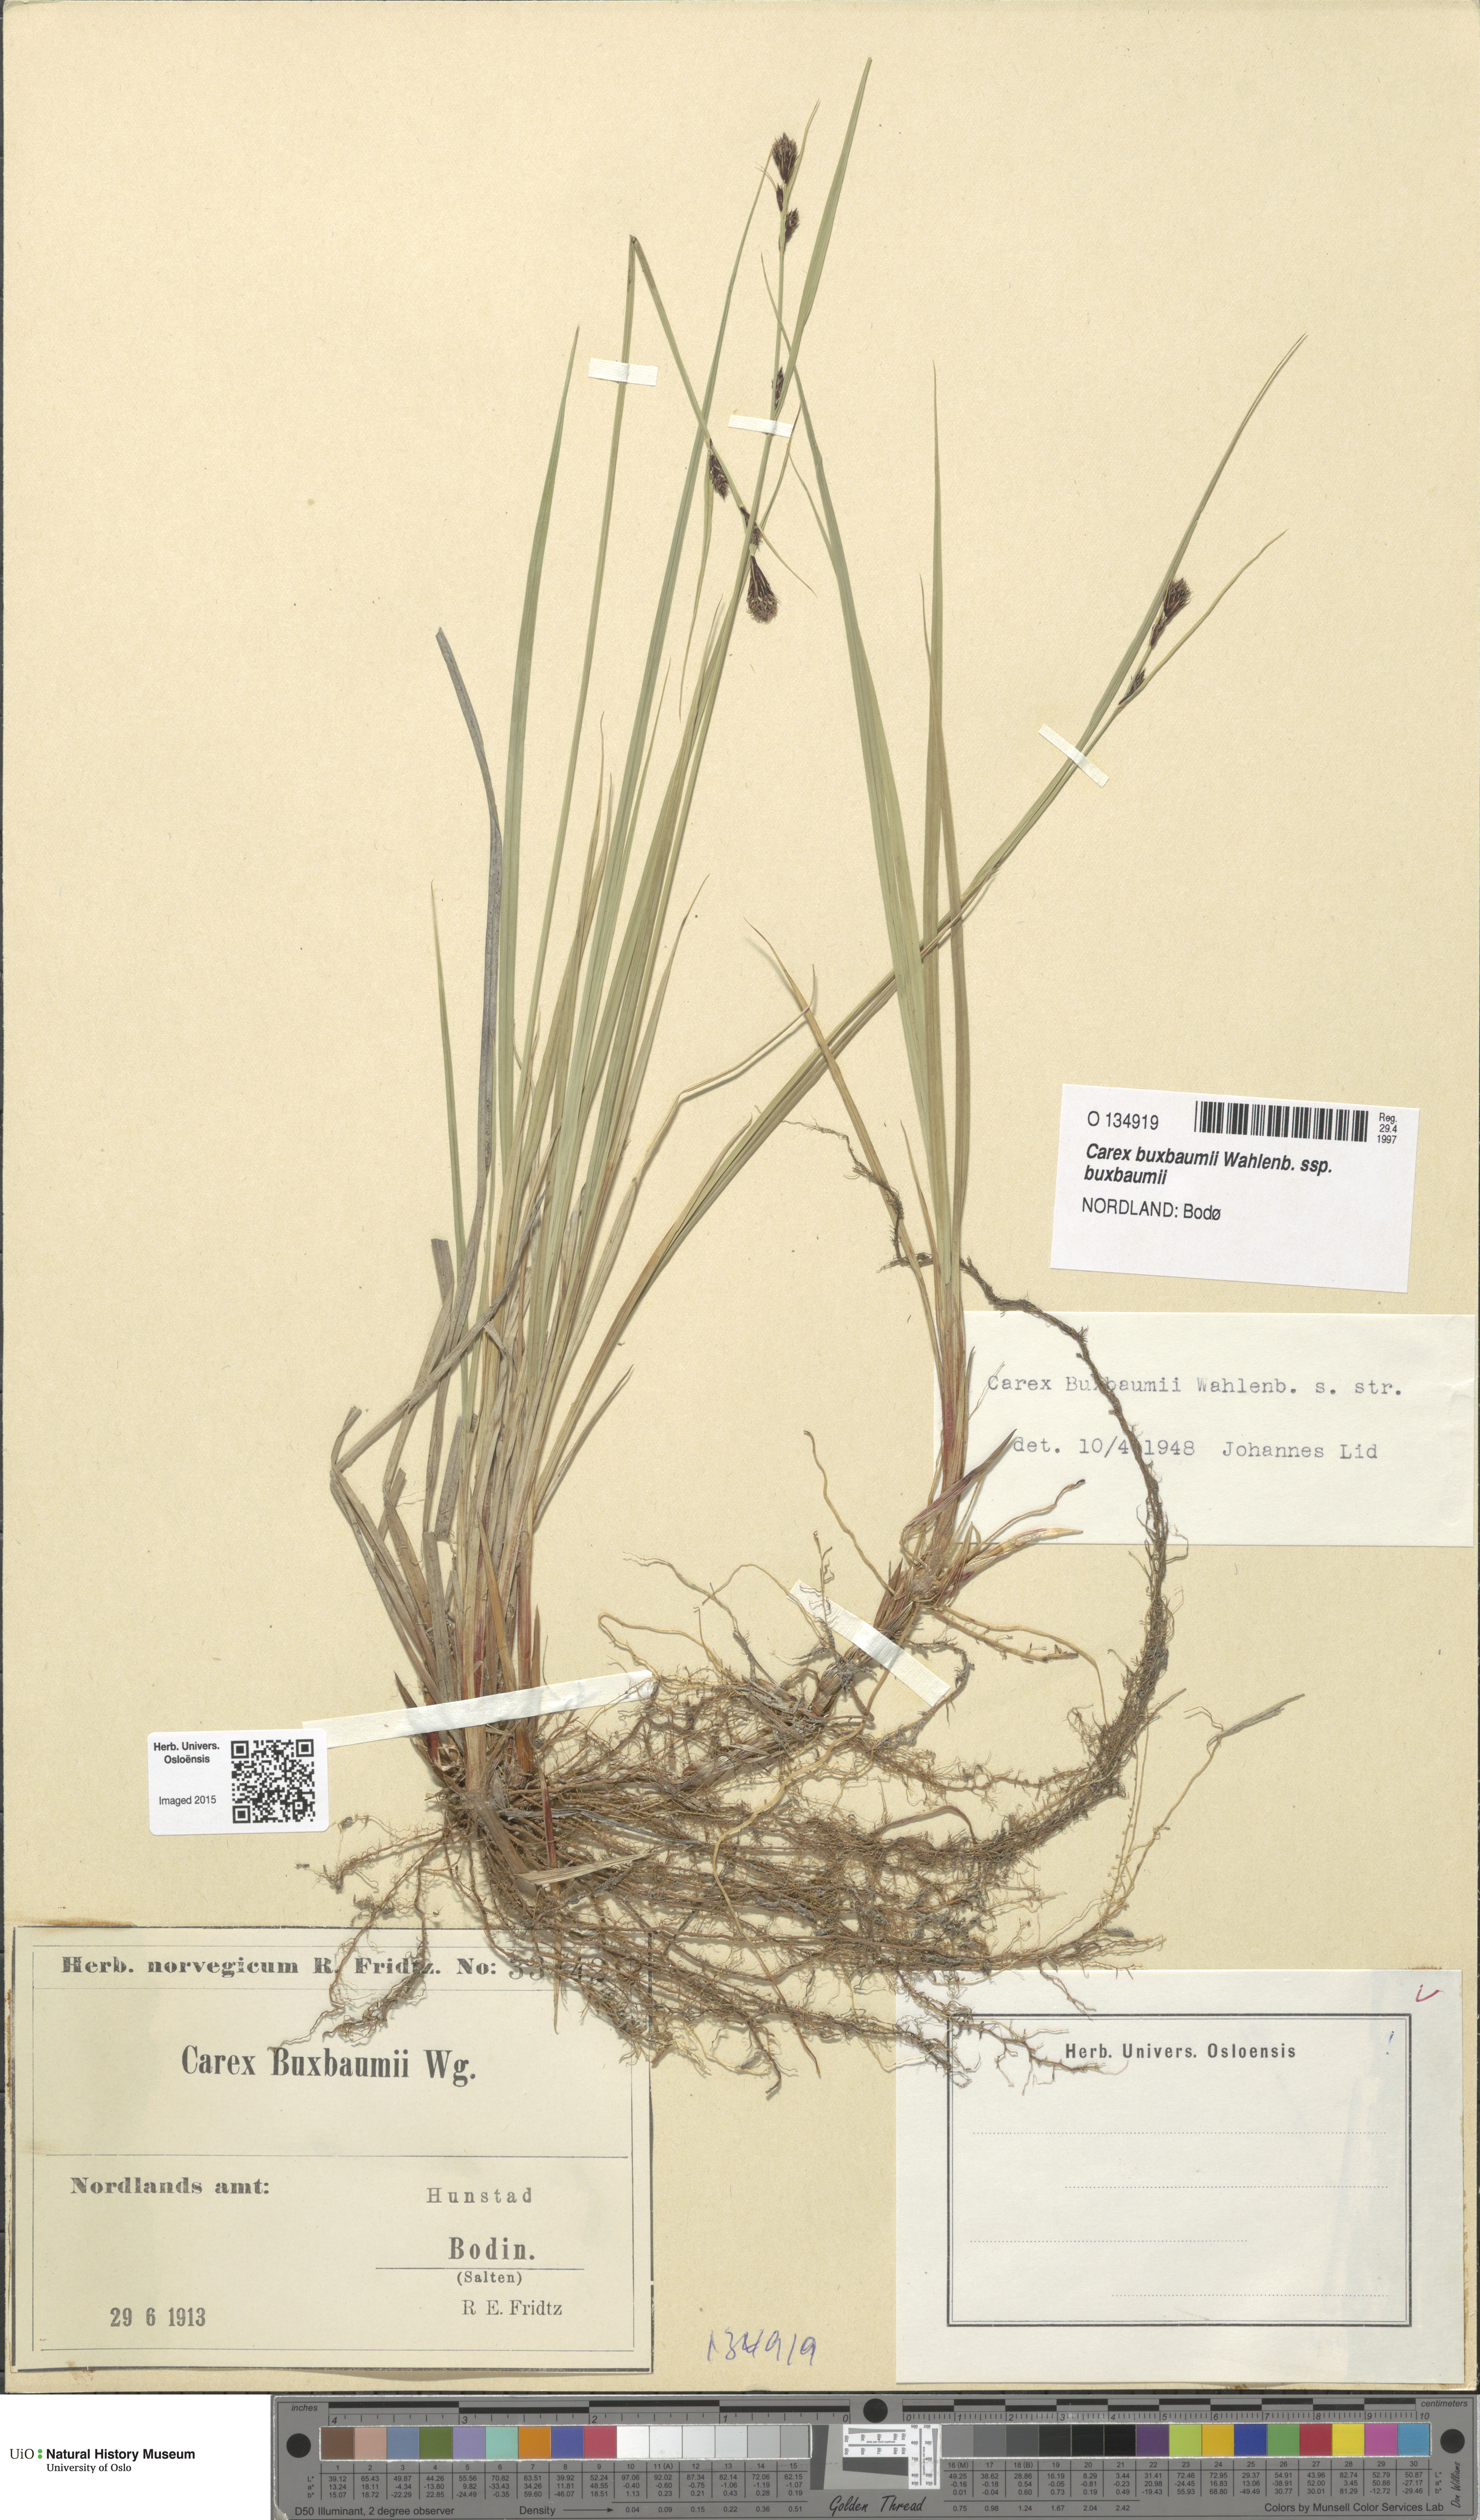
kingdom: Plantae
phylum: Tracheophyta
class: Liliopsida
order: Poales
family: Cyperaceae
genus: Carex
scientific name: Carex buxbaumii
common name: Club sedge
